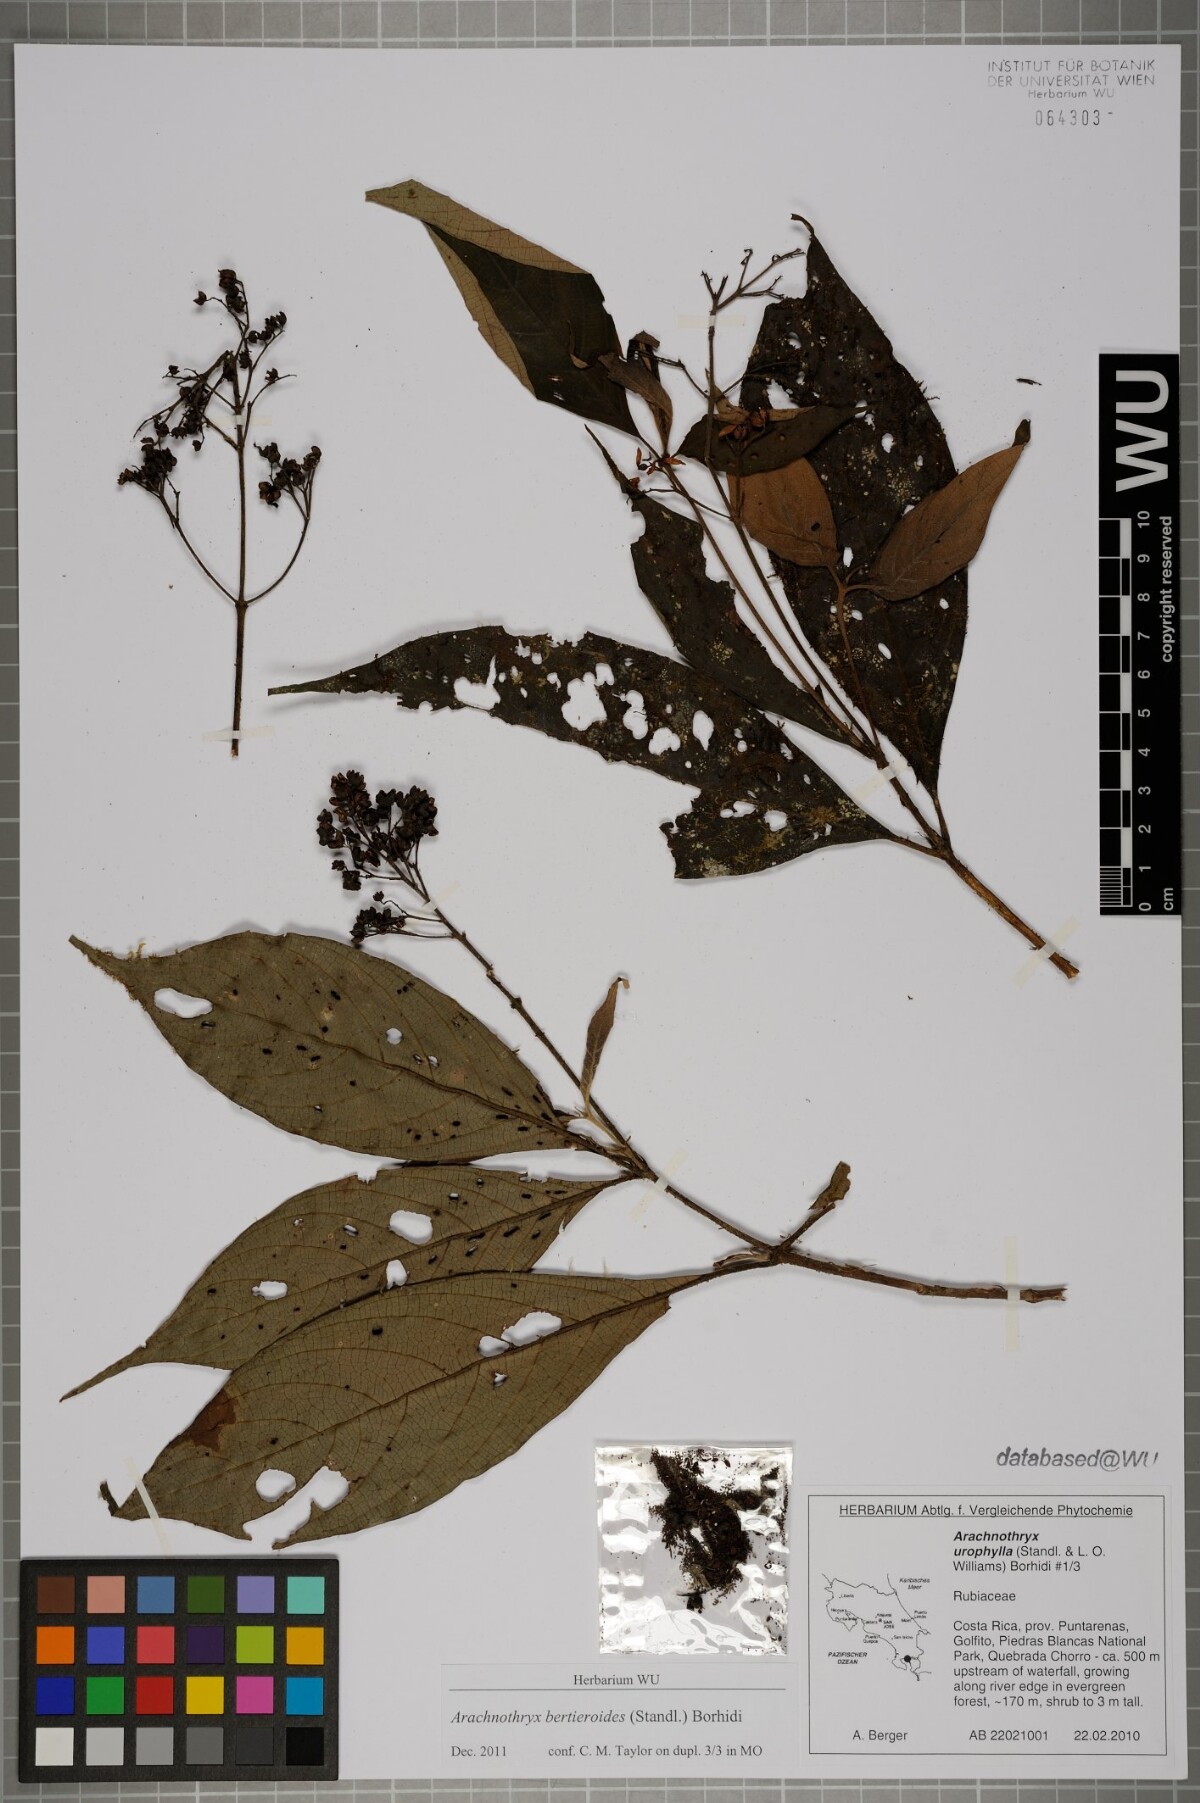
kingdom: Plantae
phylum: Tracheophyta
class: Magnoliopsida
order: Gentianales
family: Rubiaceae
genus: Arachnothryx
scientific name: Arachnothryx bertieroides
